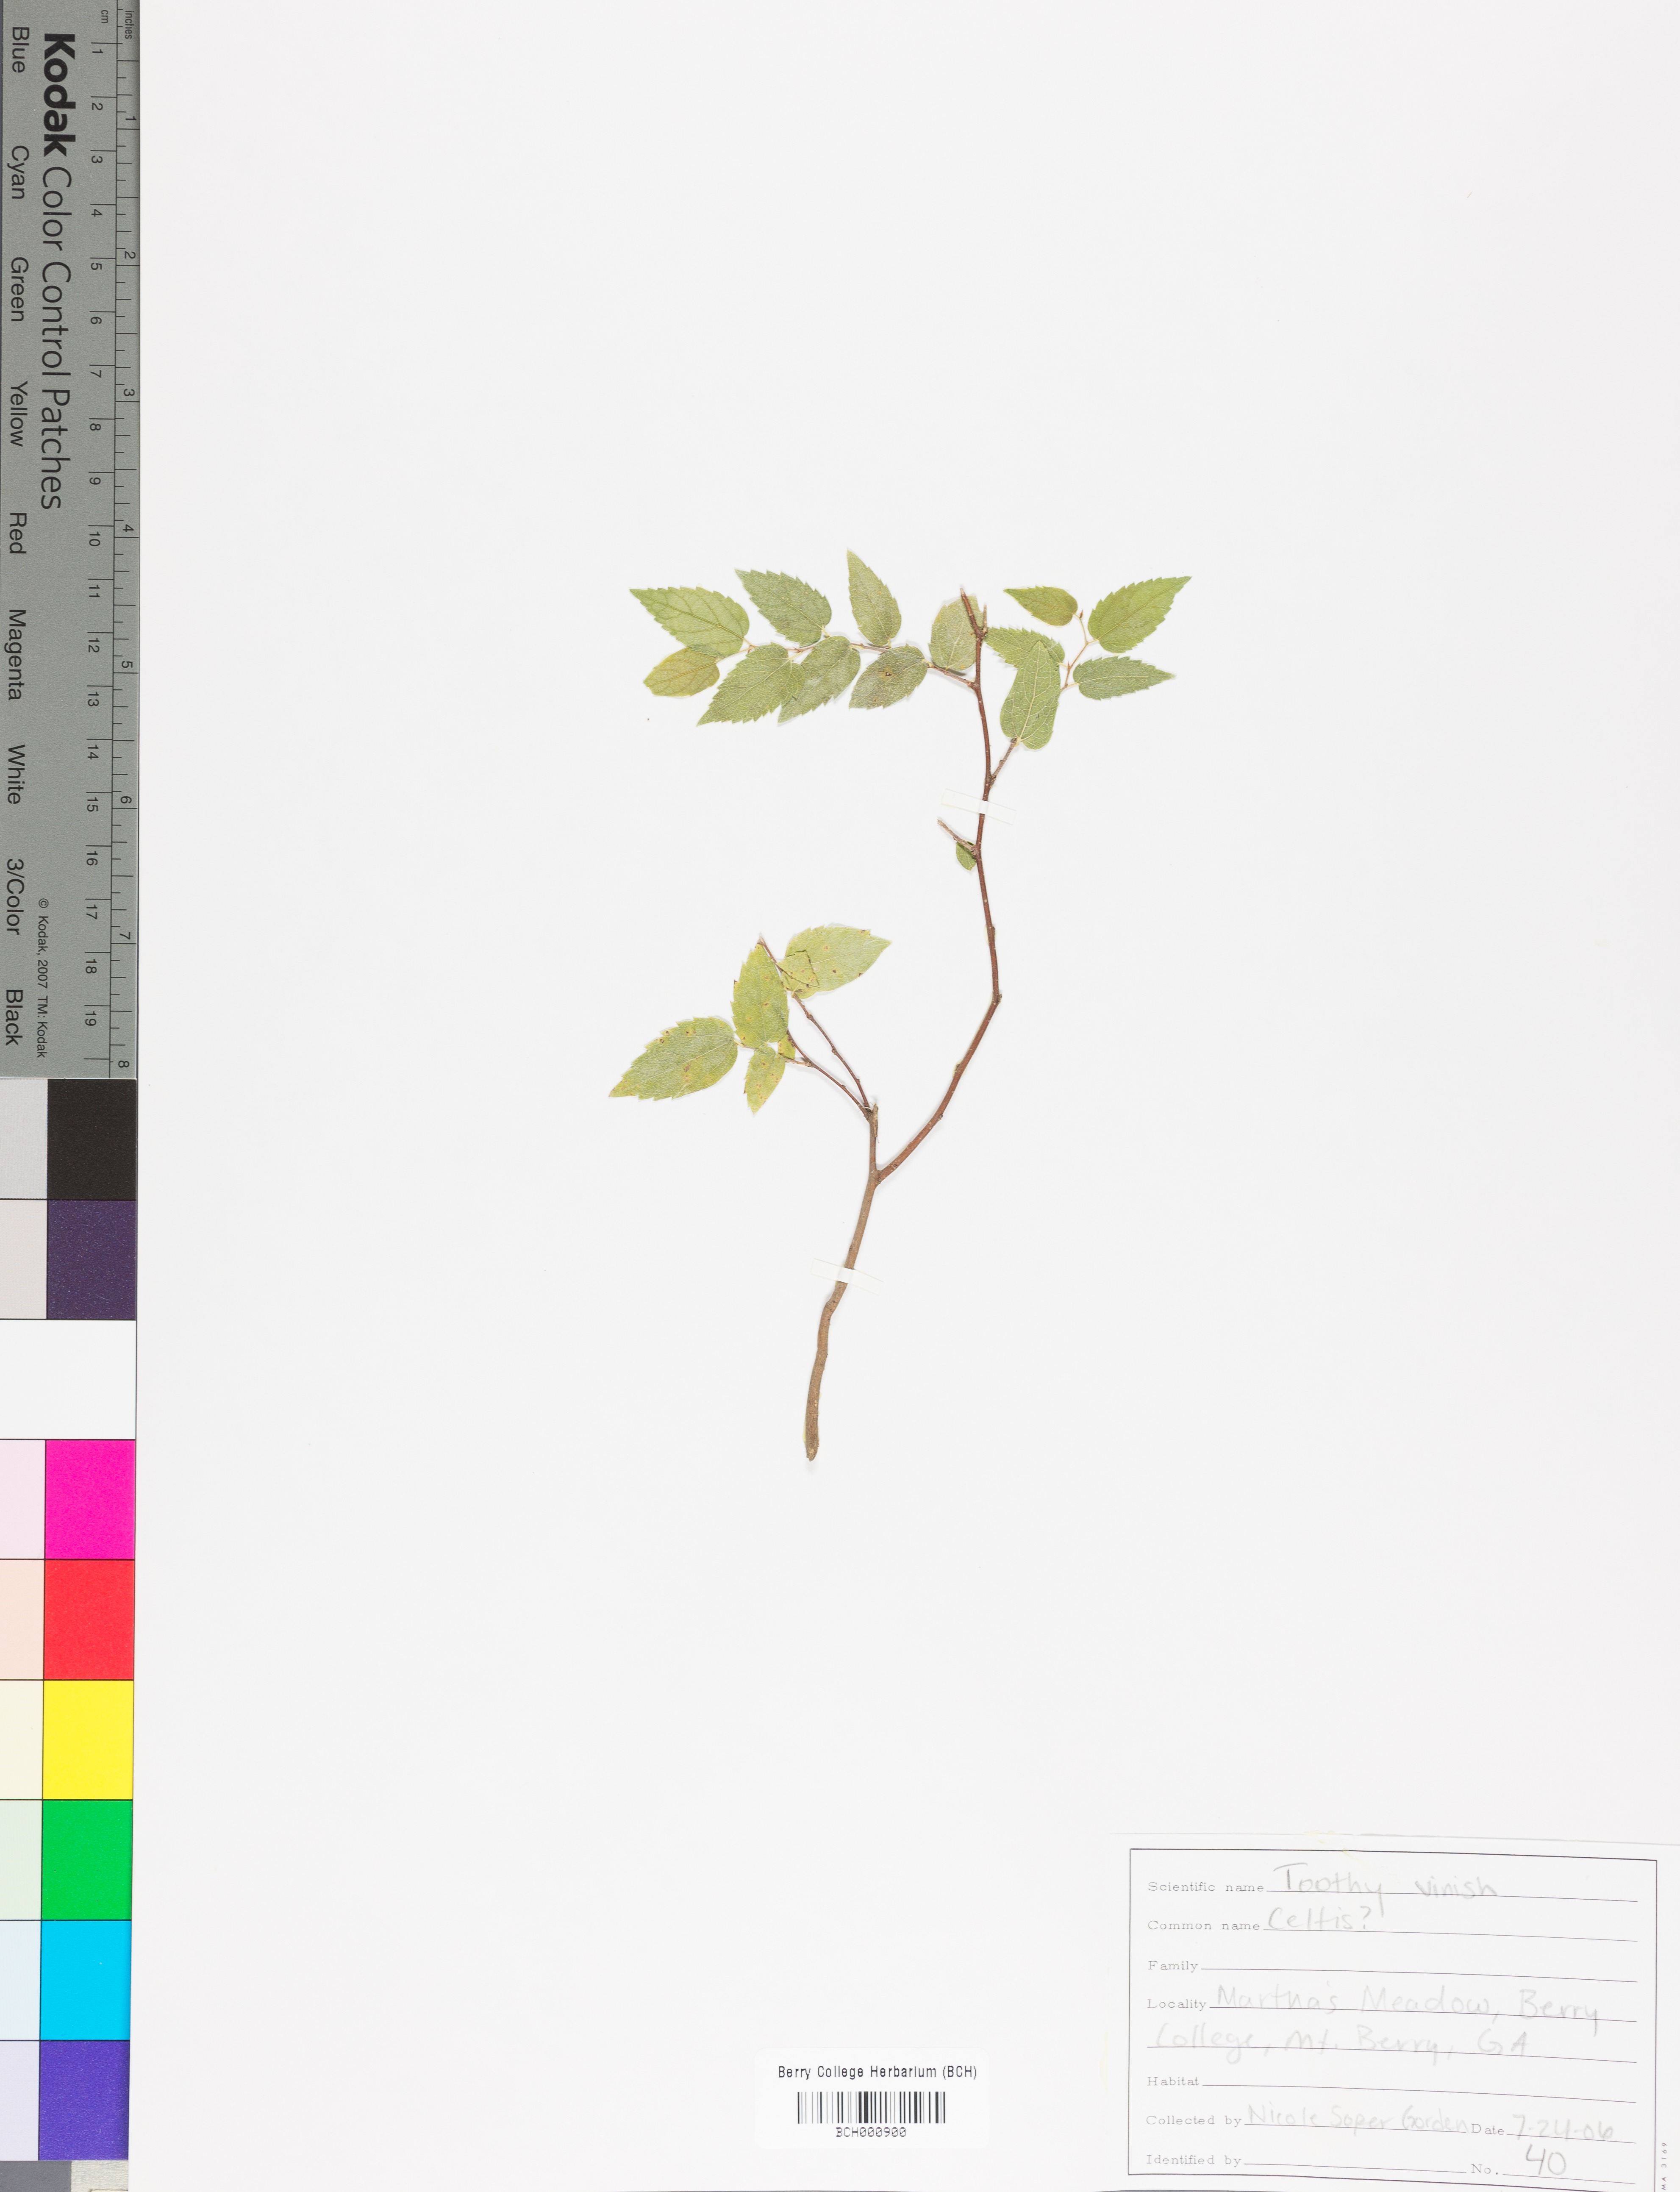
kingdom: Plantae
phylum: Tracheophyta
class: Magnoliopsida
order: Lamiales
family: Acanthaceae
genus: Adhatoda
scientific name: Adhatoda
